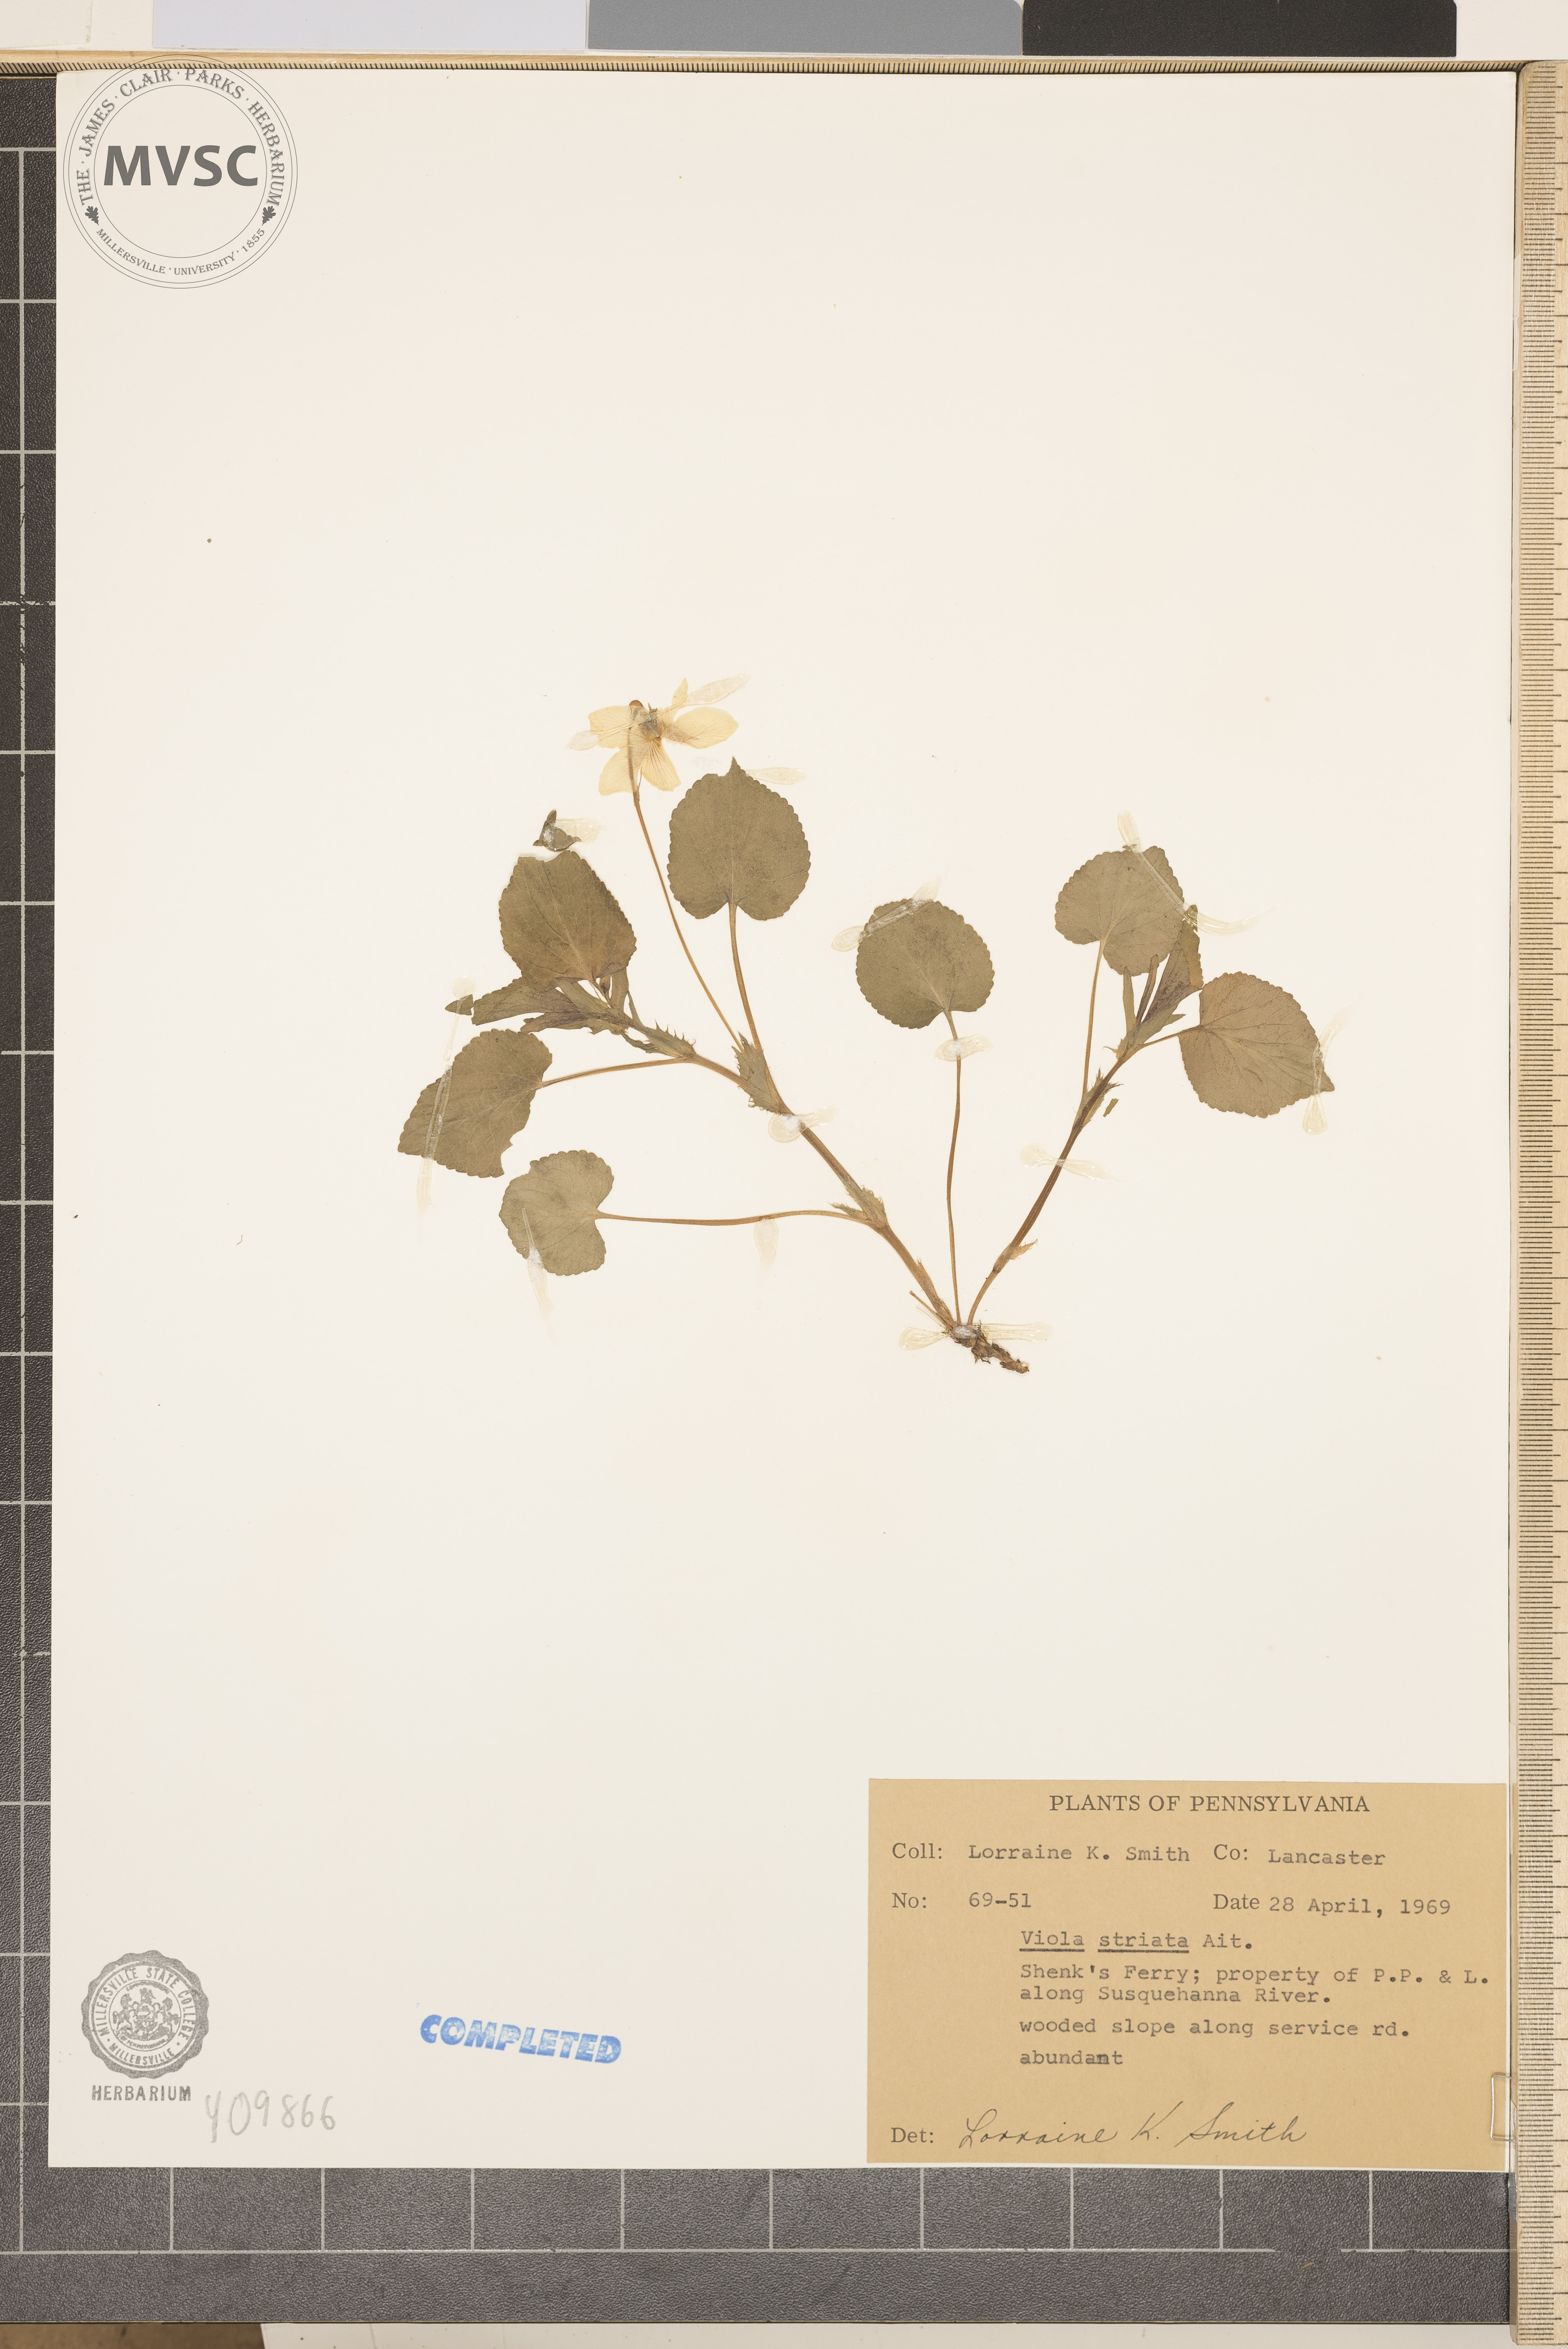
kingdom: Plantae
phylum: Tracheophyta
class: Magnoliopsida
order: Malpighiales
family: Violaceae
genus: Viola
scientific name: Viola striata
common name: striped violet
